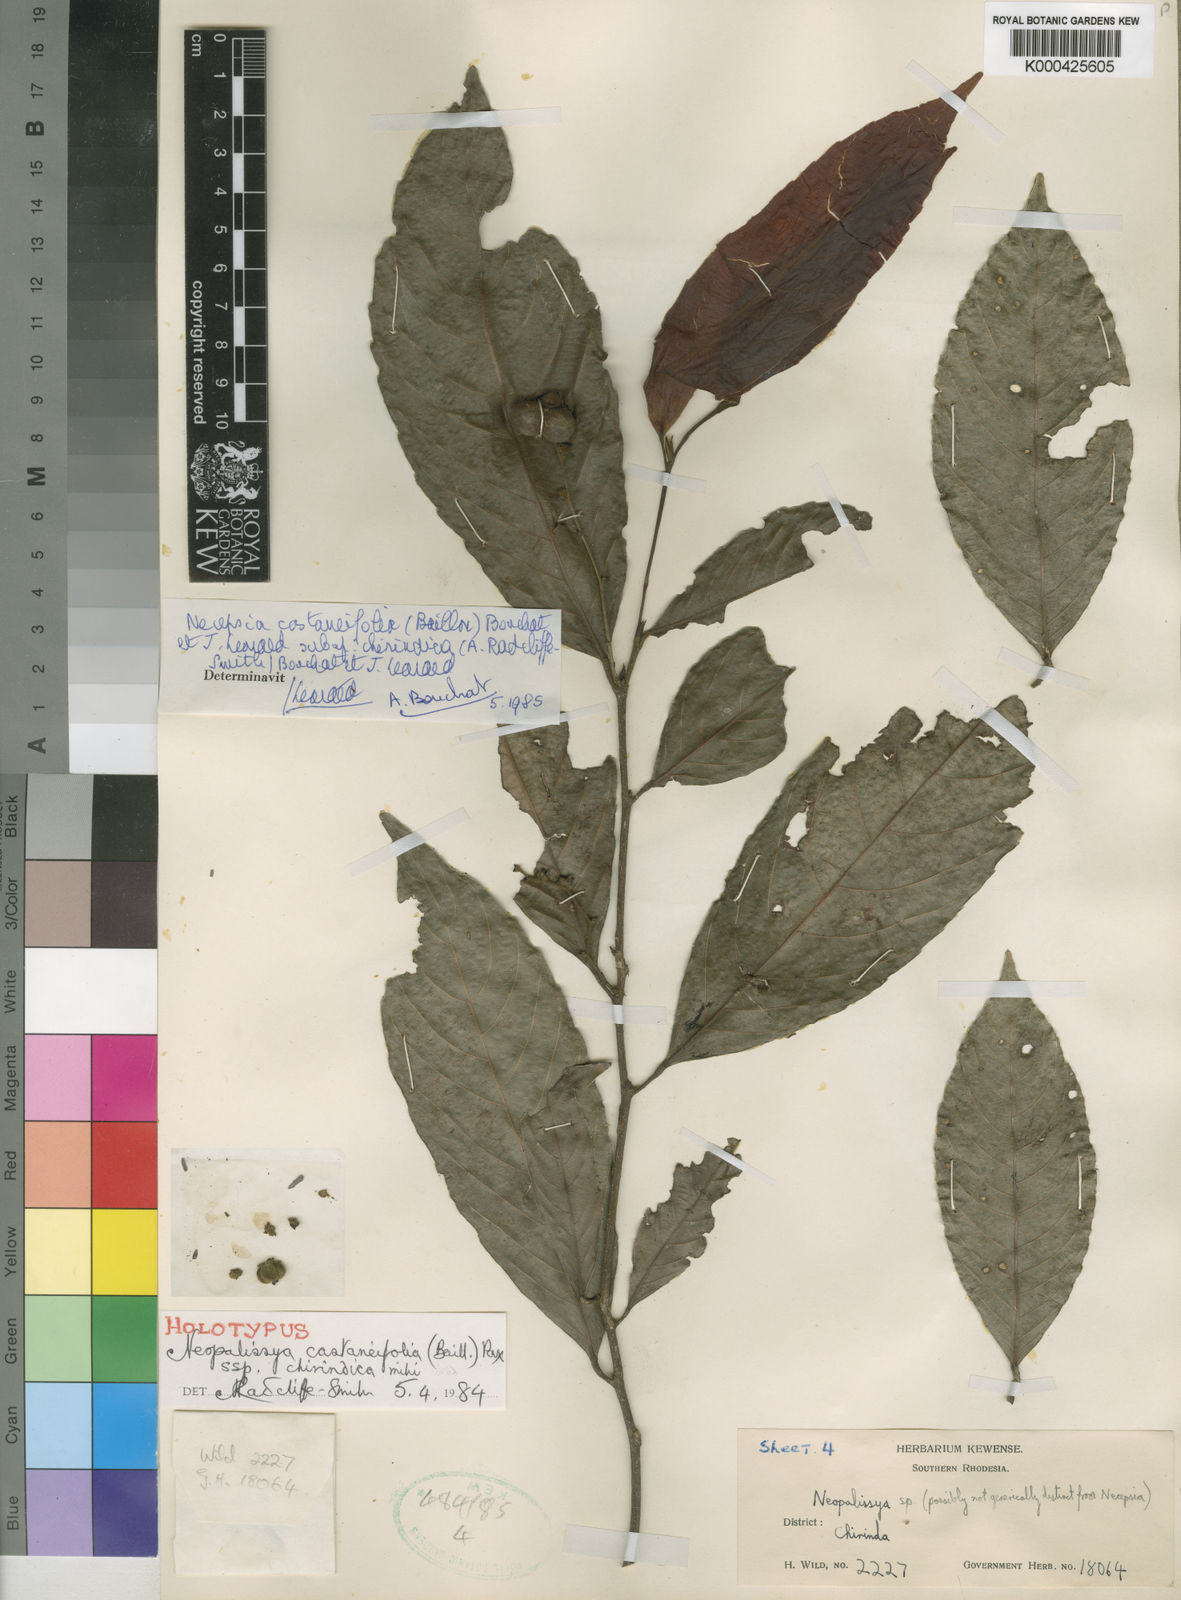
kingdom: Plantae
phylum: Tracheophyta
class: Magnoliopsida
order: Malpighiales
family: Euphorbiaceae
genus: Necepsia
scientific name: Necepsia
